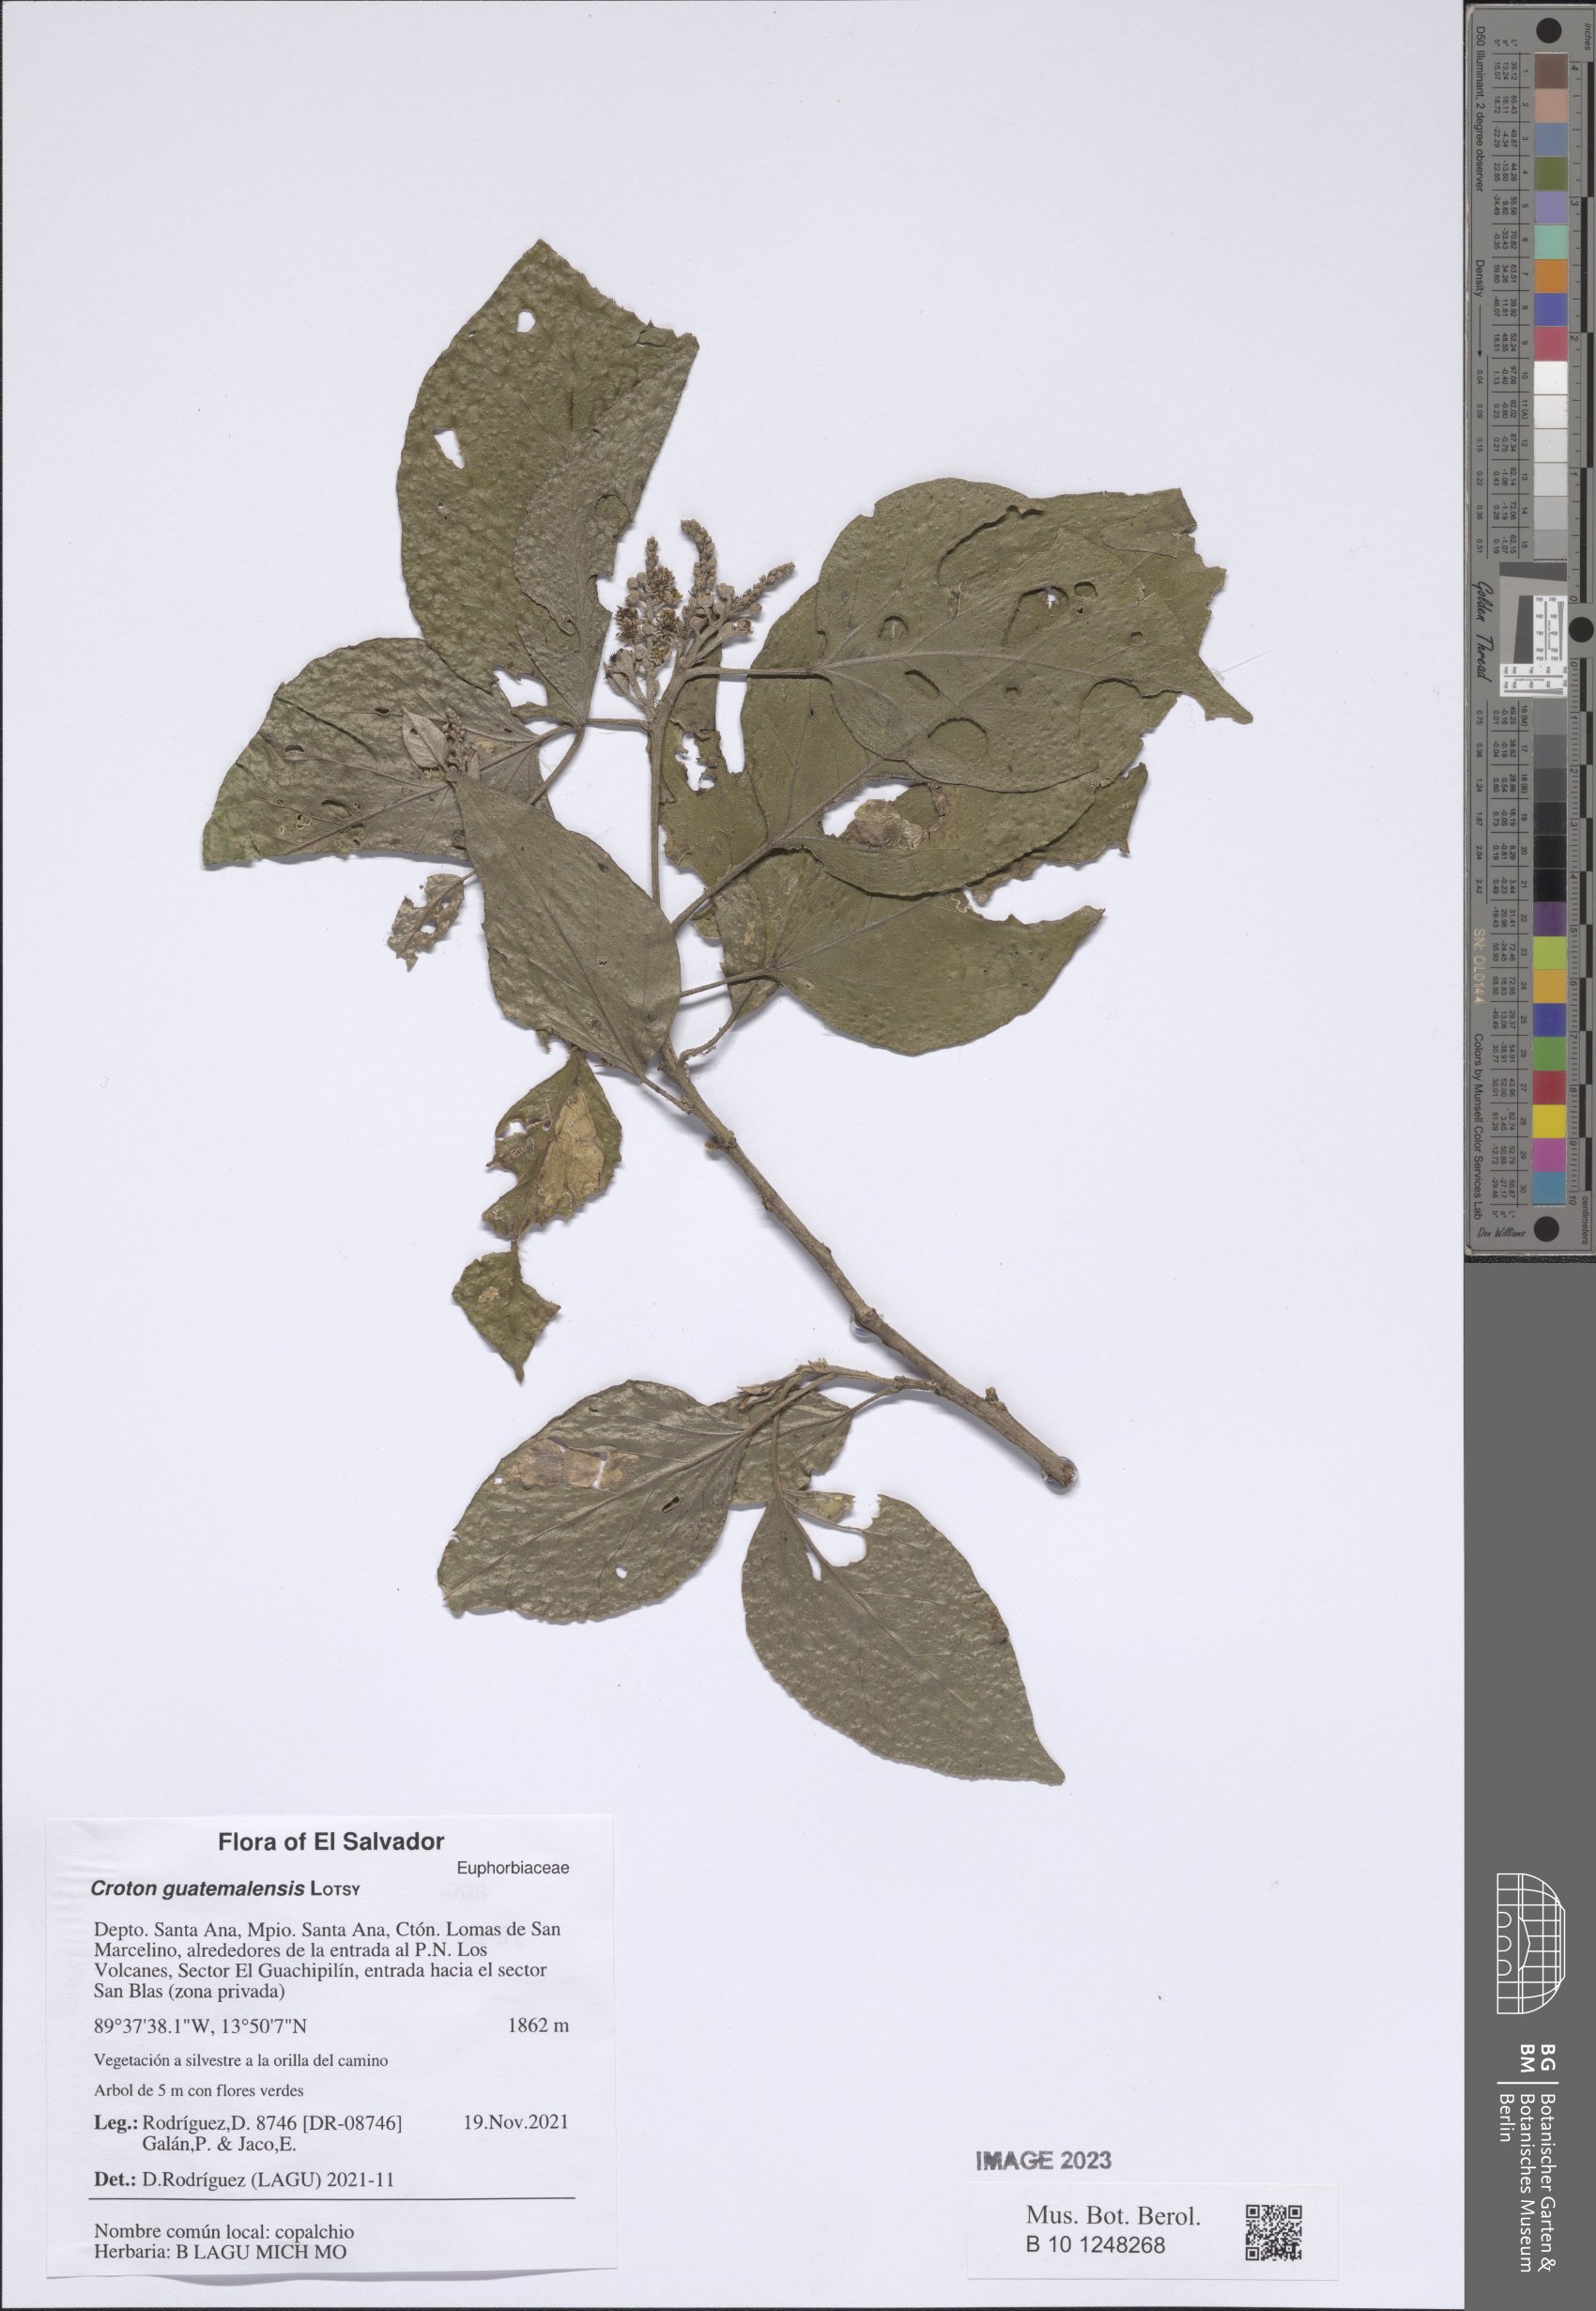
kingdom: Plantae
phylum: Tracheophyta
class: Magnoliopsida
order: Malpighiales
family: Euphorbiaceae
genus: Croton
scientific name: Croton guatemalensis
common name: Copalchi
